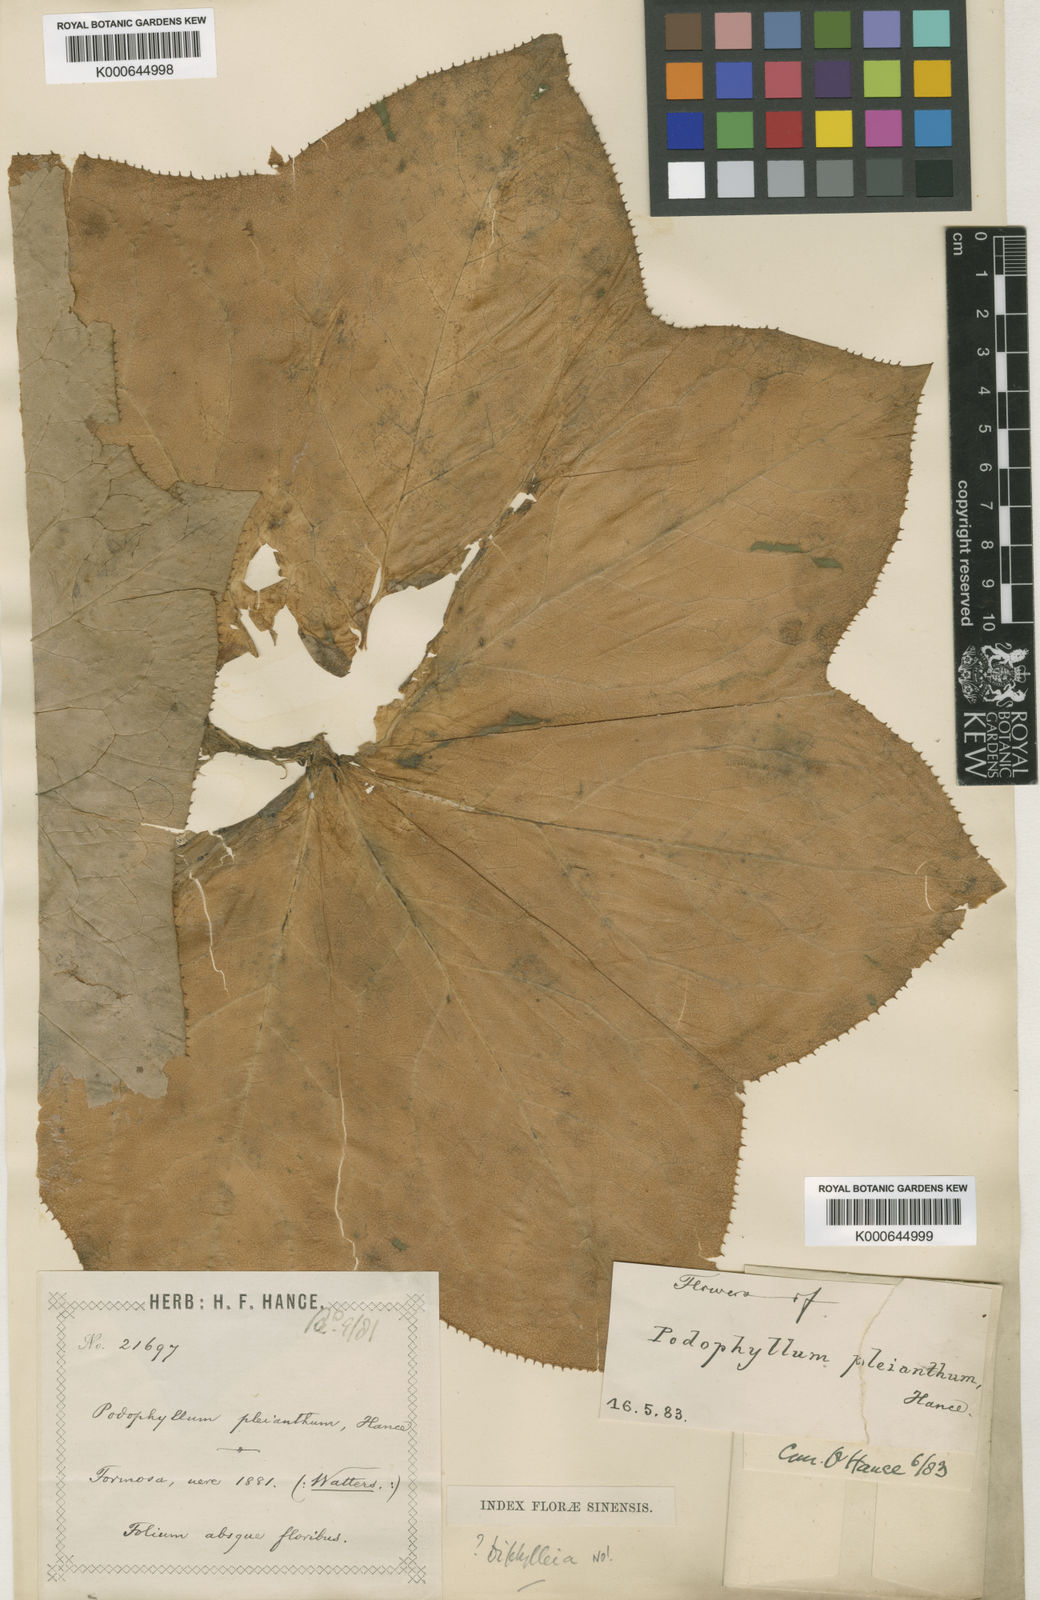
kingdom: Plantae
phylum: Tracheophyta
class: Magnoliopsida
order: Ranunculales
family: Berberidaceae
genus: Dysosma
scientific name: Dysosma pleiantha
